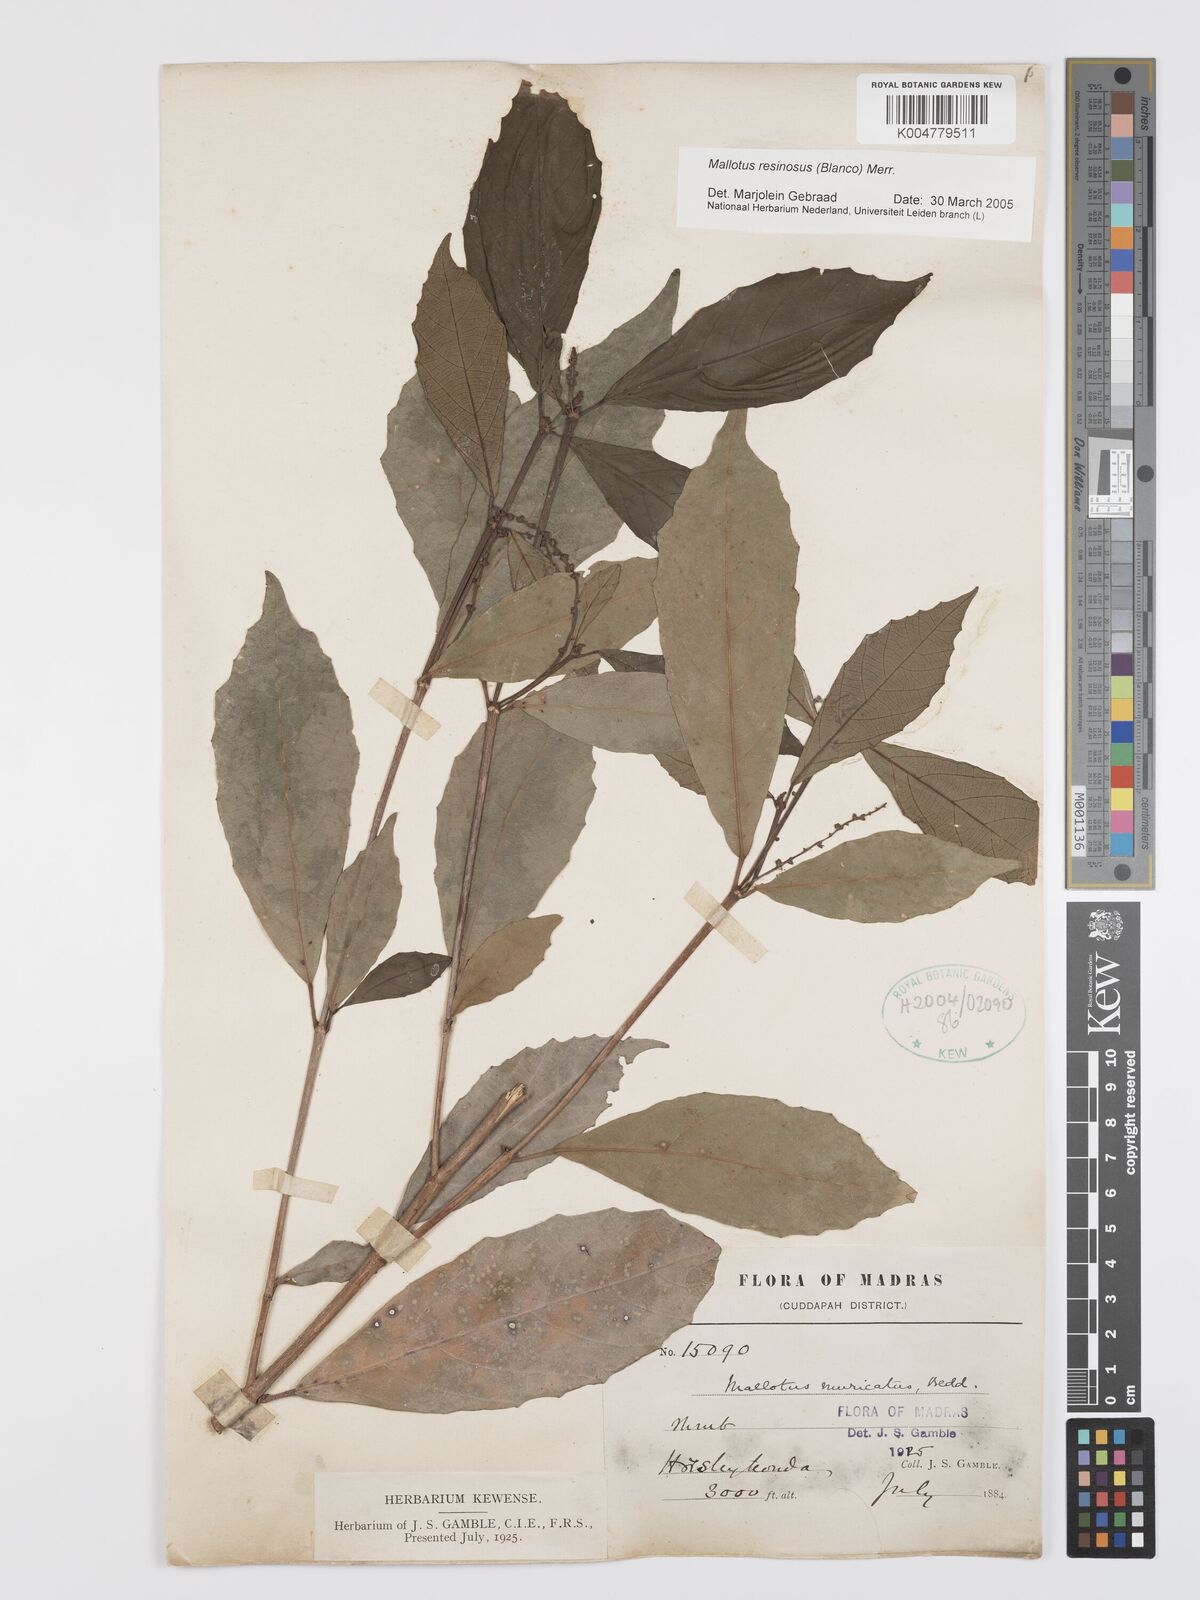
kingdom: Plantae
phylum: Tracheophyta
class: Magnoliopsida
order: Malpighiales
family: Euphorbiaceae
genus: Mallotus
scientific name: Mallotus resinosus
